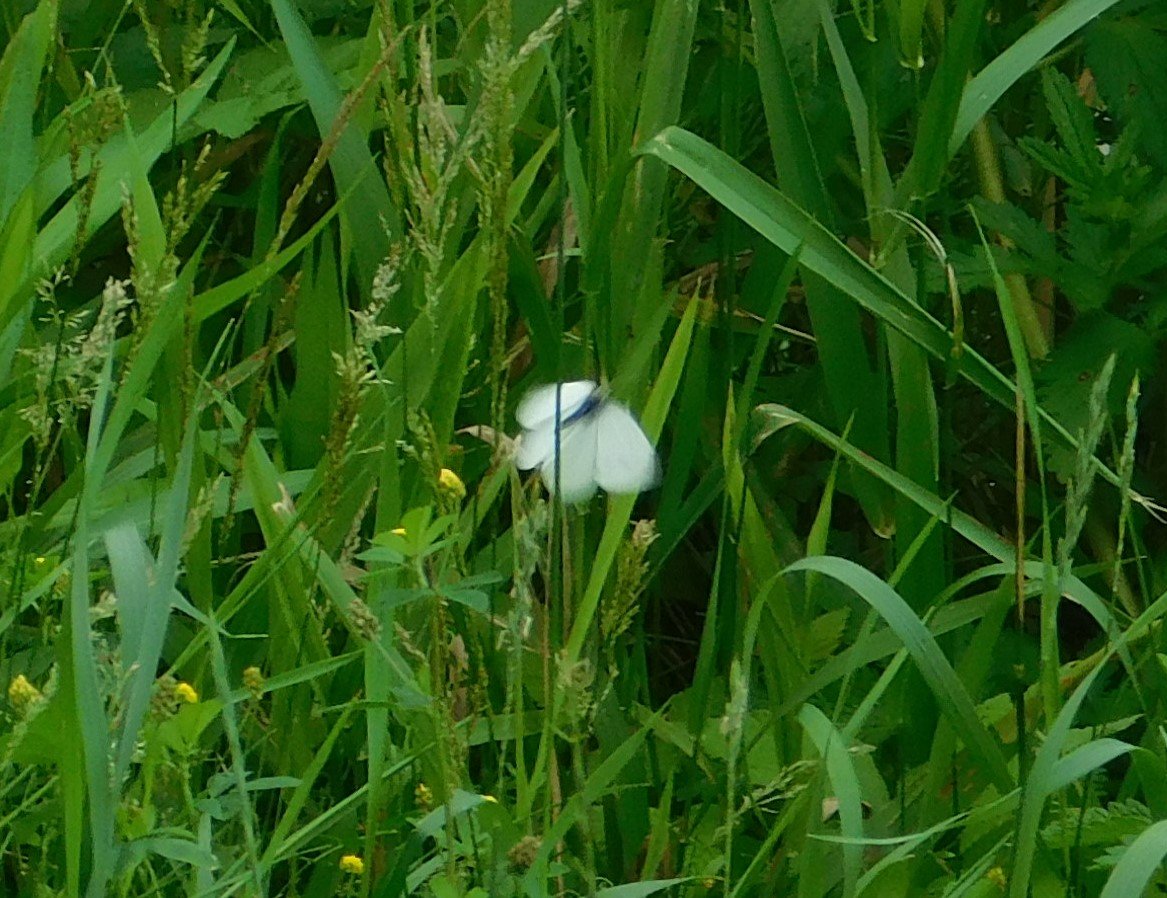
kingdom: Animalia
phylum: Arthropoda
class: Insecta
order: Lepidoptera
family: Pieridae
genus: Pieris
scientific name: Pieris rapae
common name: Cabbage White
